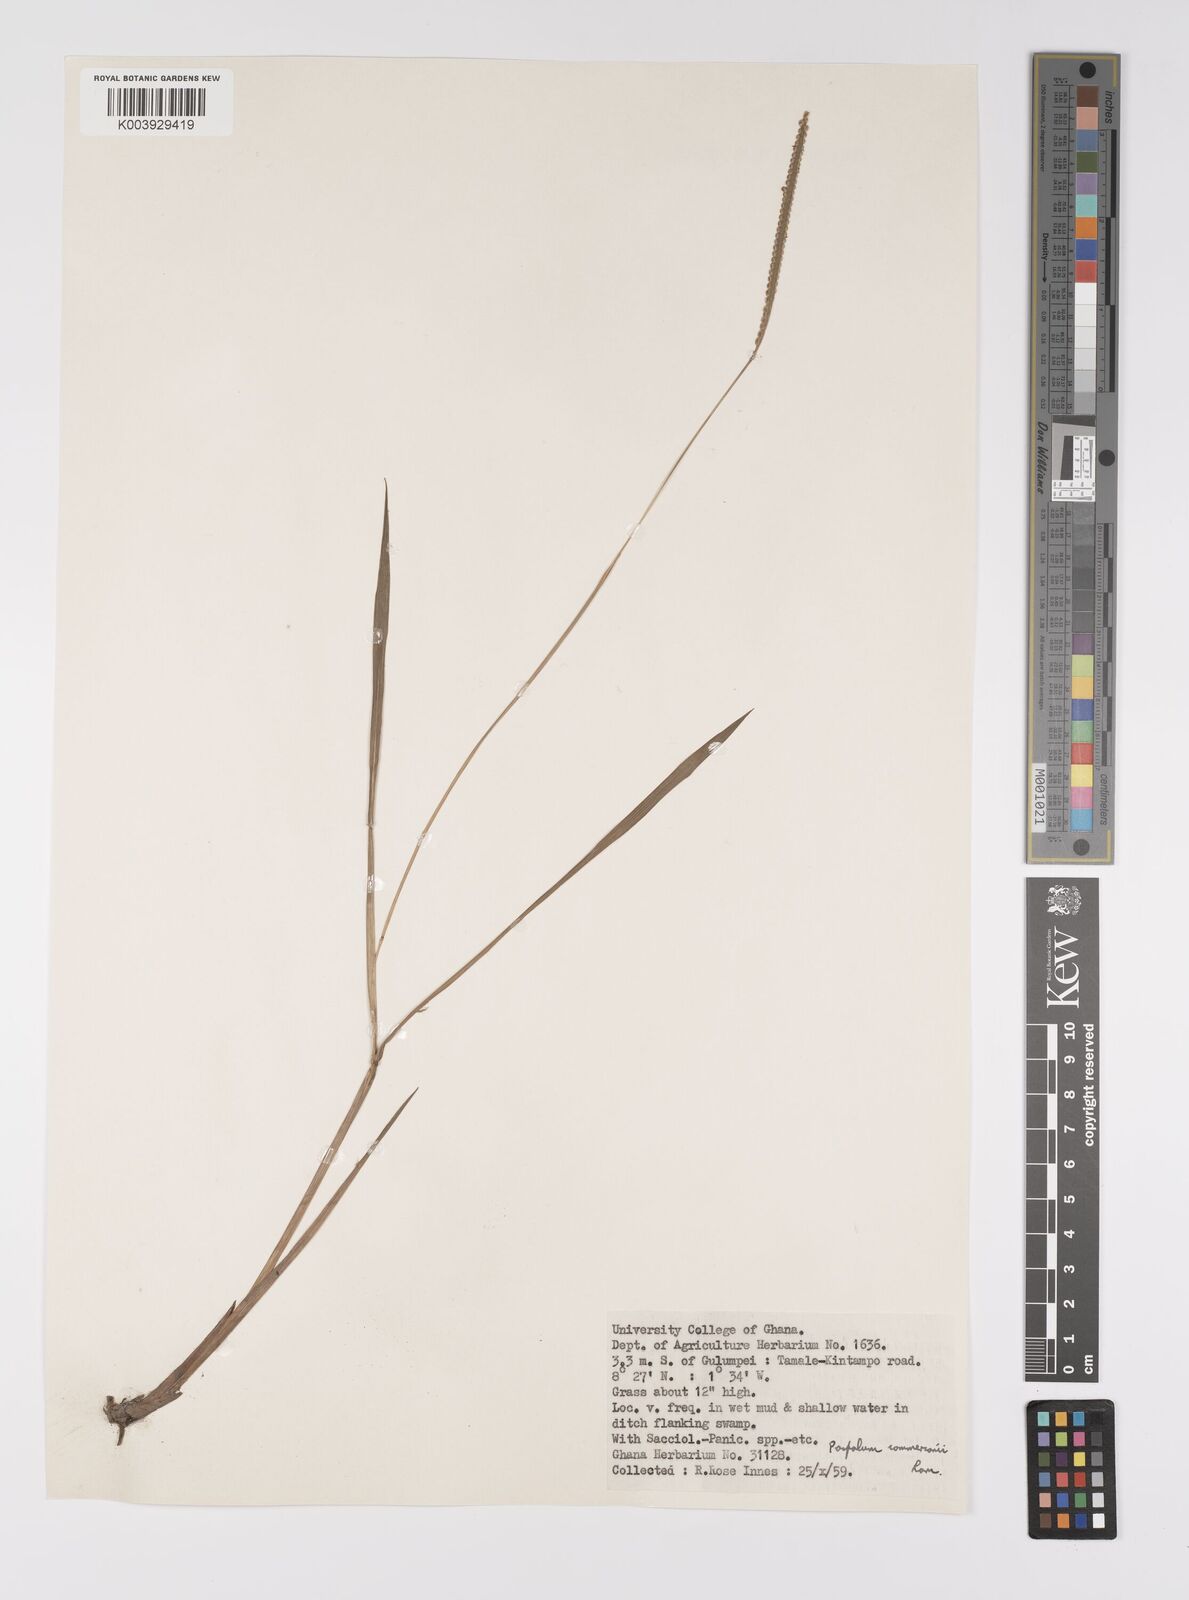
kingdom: Plantae
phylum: Tracheophyta
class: Liliopsida
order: Poales
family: Poaceae
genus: Paspalum
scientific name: Paspalum scrobiculatum
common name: Kodo millet
